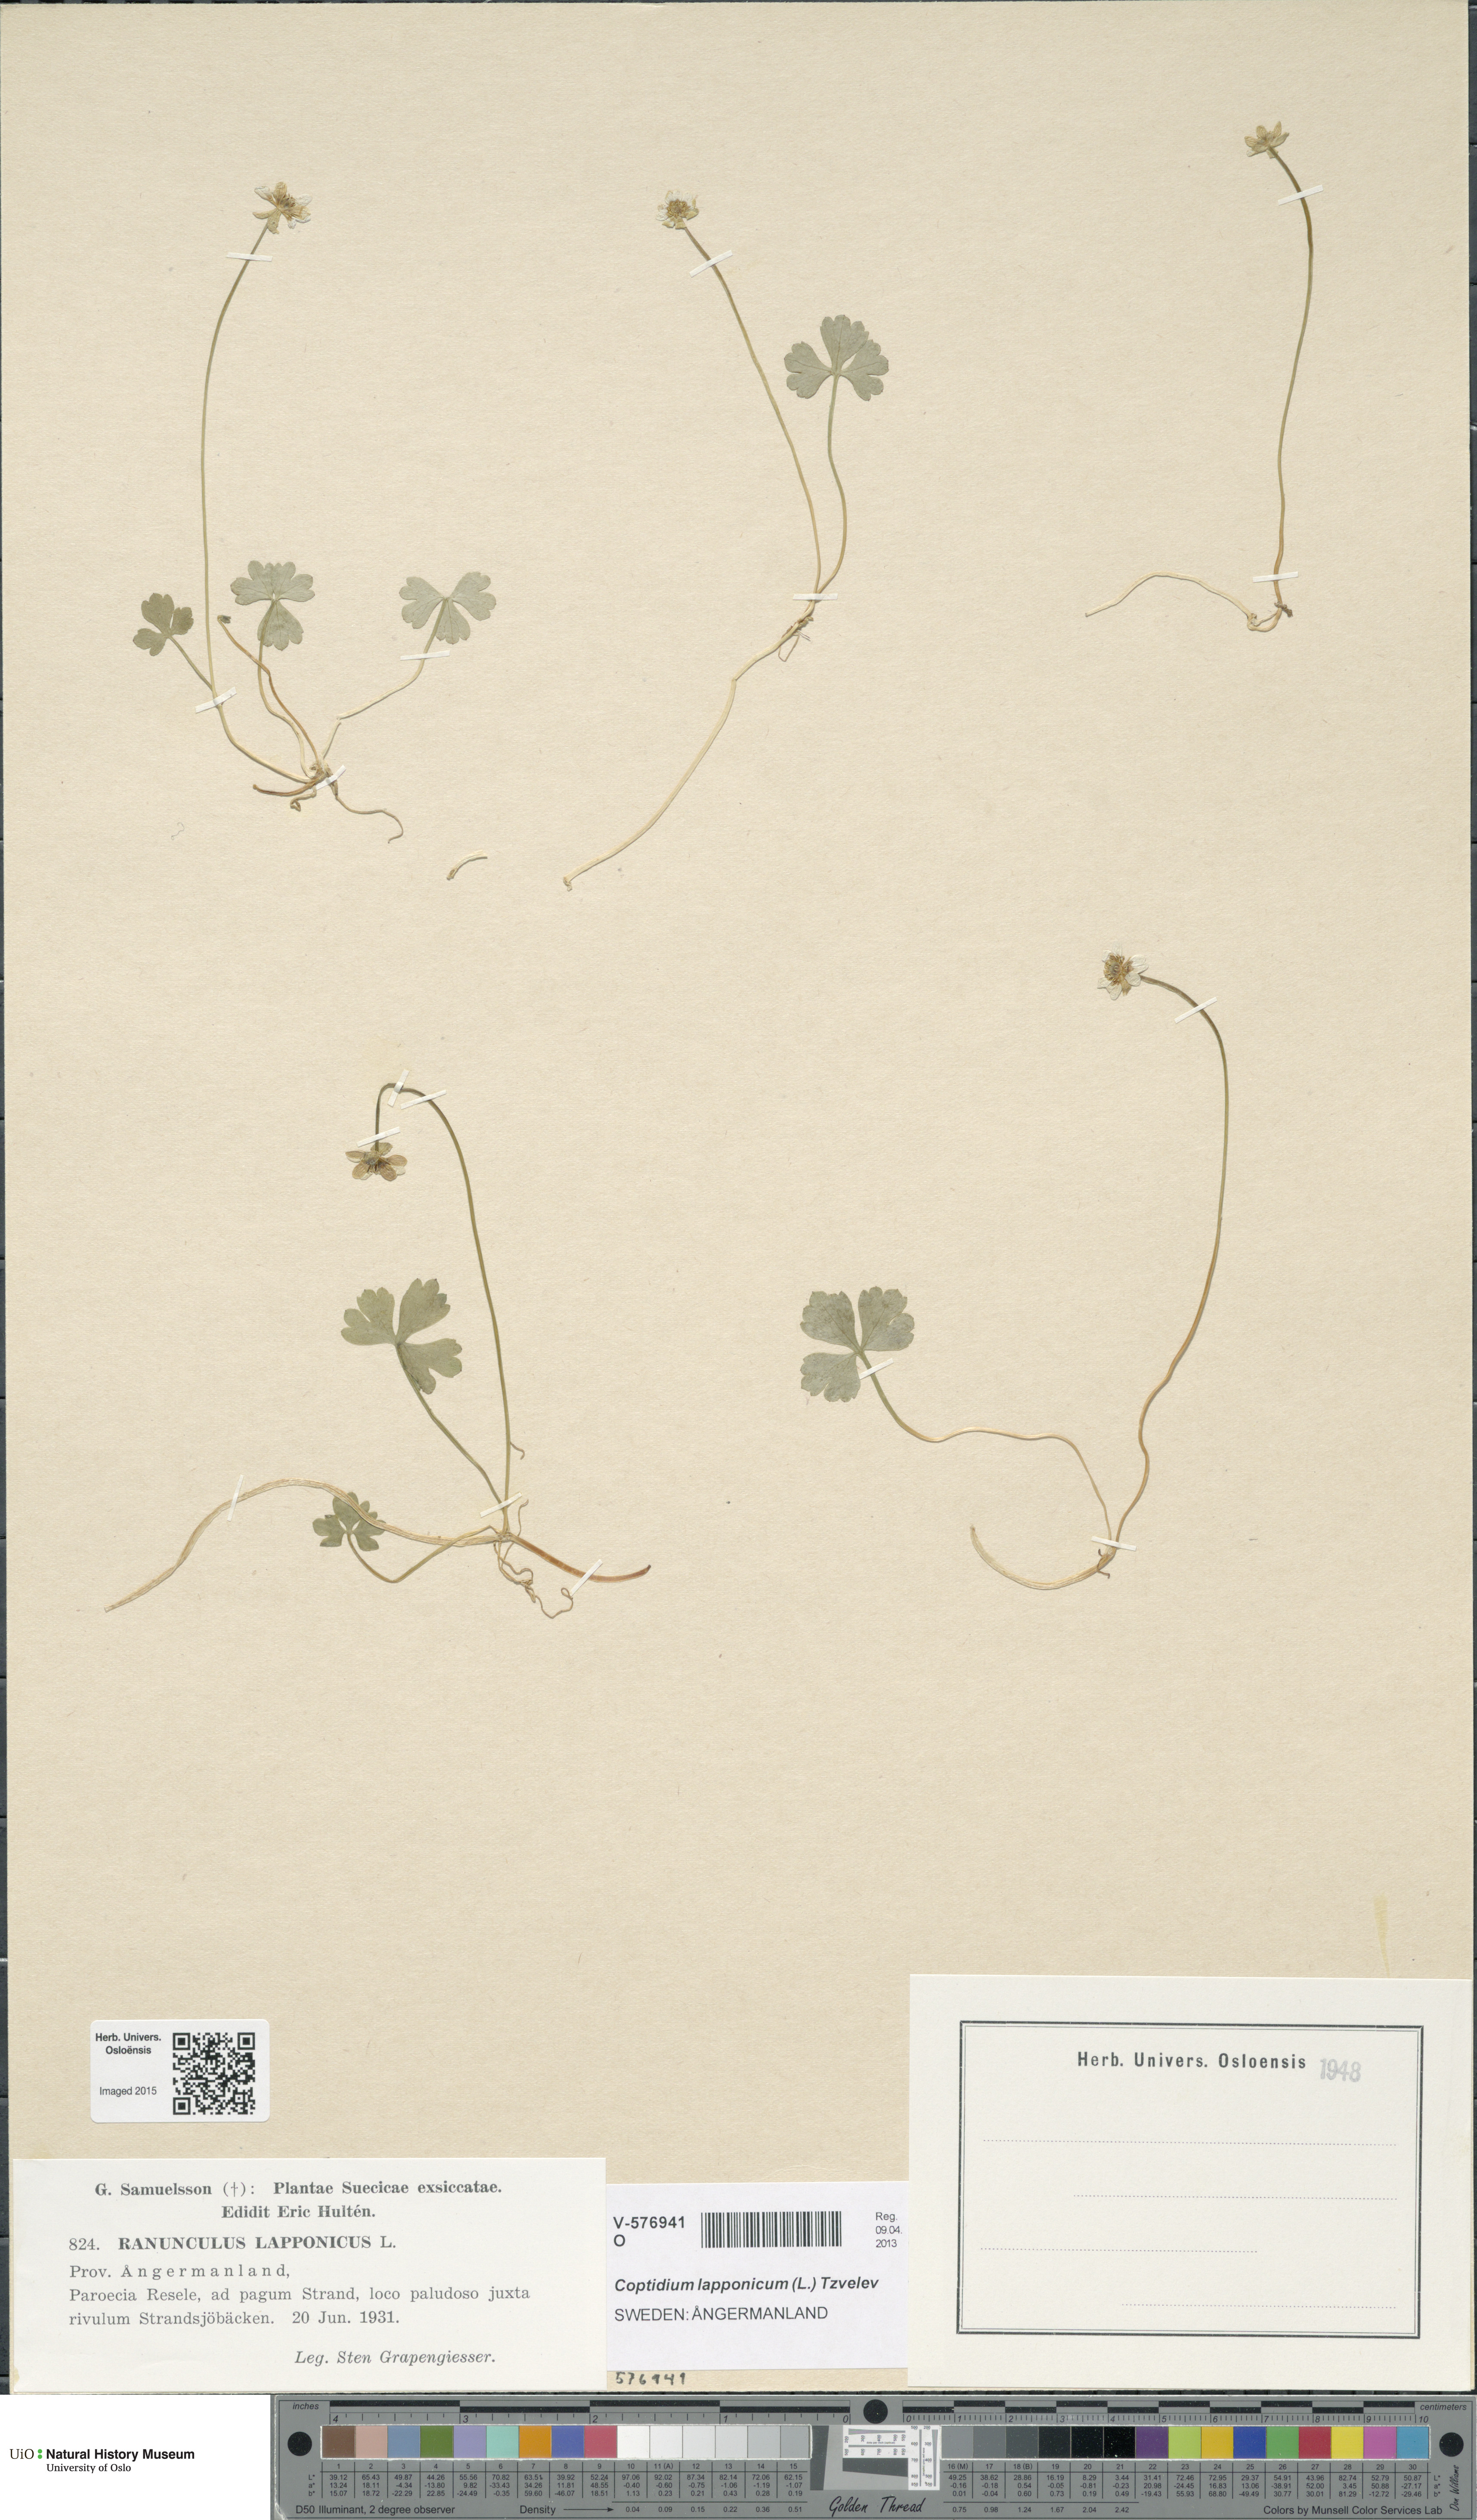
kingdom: Plantae
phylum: Tracheophyta
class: Magnoliopsida
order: Ranunculales
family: Ranunculaceae
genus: Coptidium
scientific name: Coptidium lapponicum
